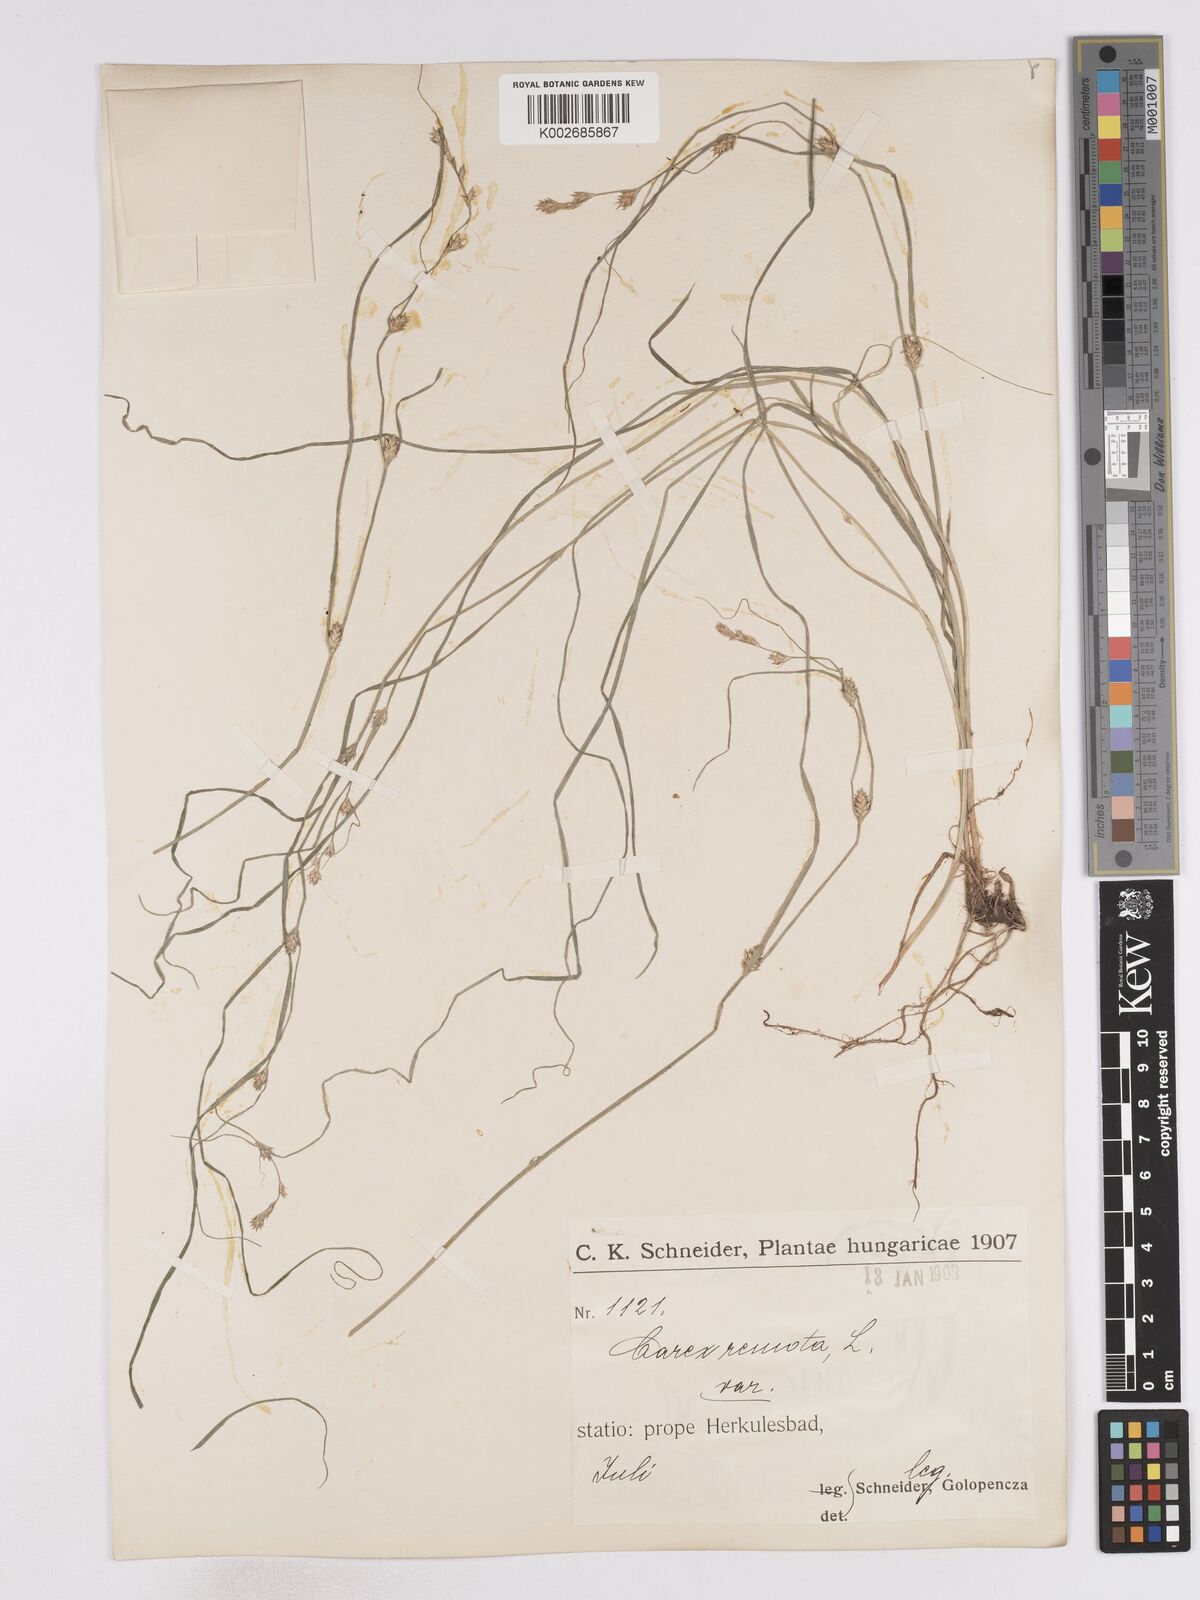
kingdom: Plantae
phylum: Tracheophyta
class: Liliopsida
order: Poales
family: Cyperaceae
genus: Carex
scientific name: Carex remota
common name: Remote sedge
